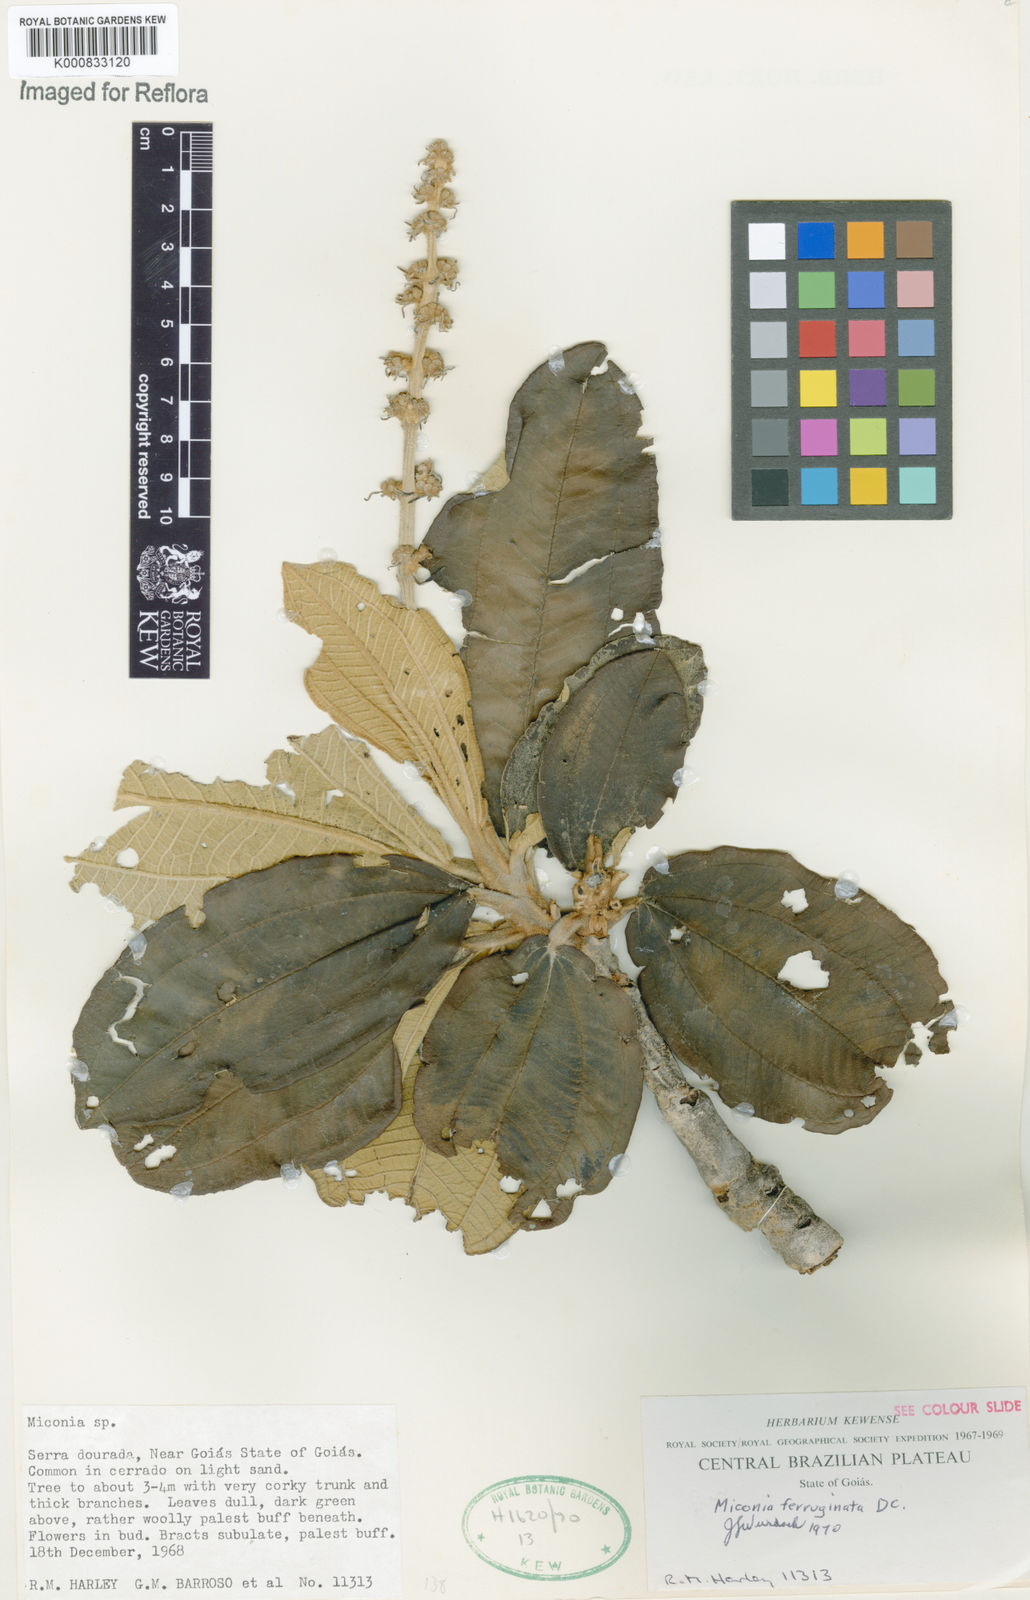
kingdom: Plantae
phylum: Tracheophyta
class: Magnoliopsida
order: Myrtales
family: Melastomataceae
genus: Miconia
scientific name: Miconia ferruginata
